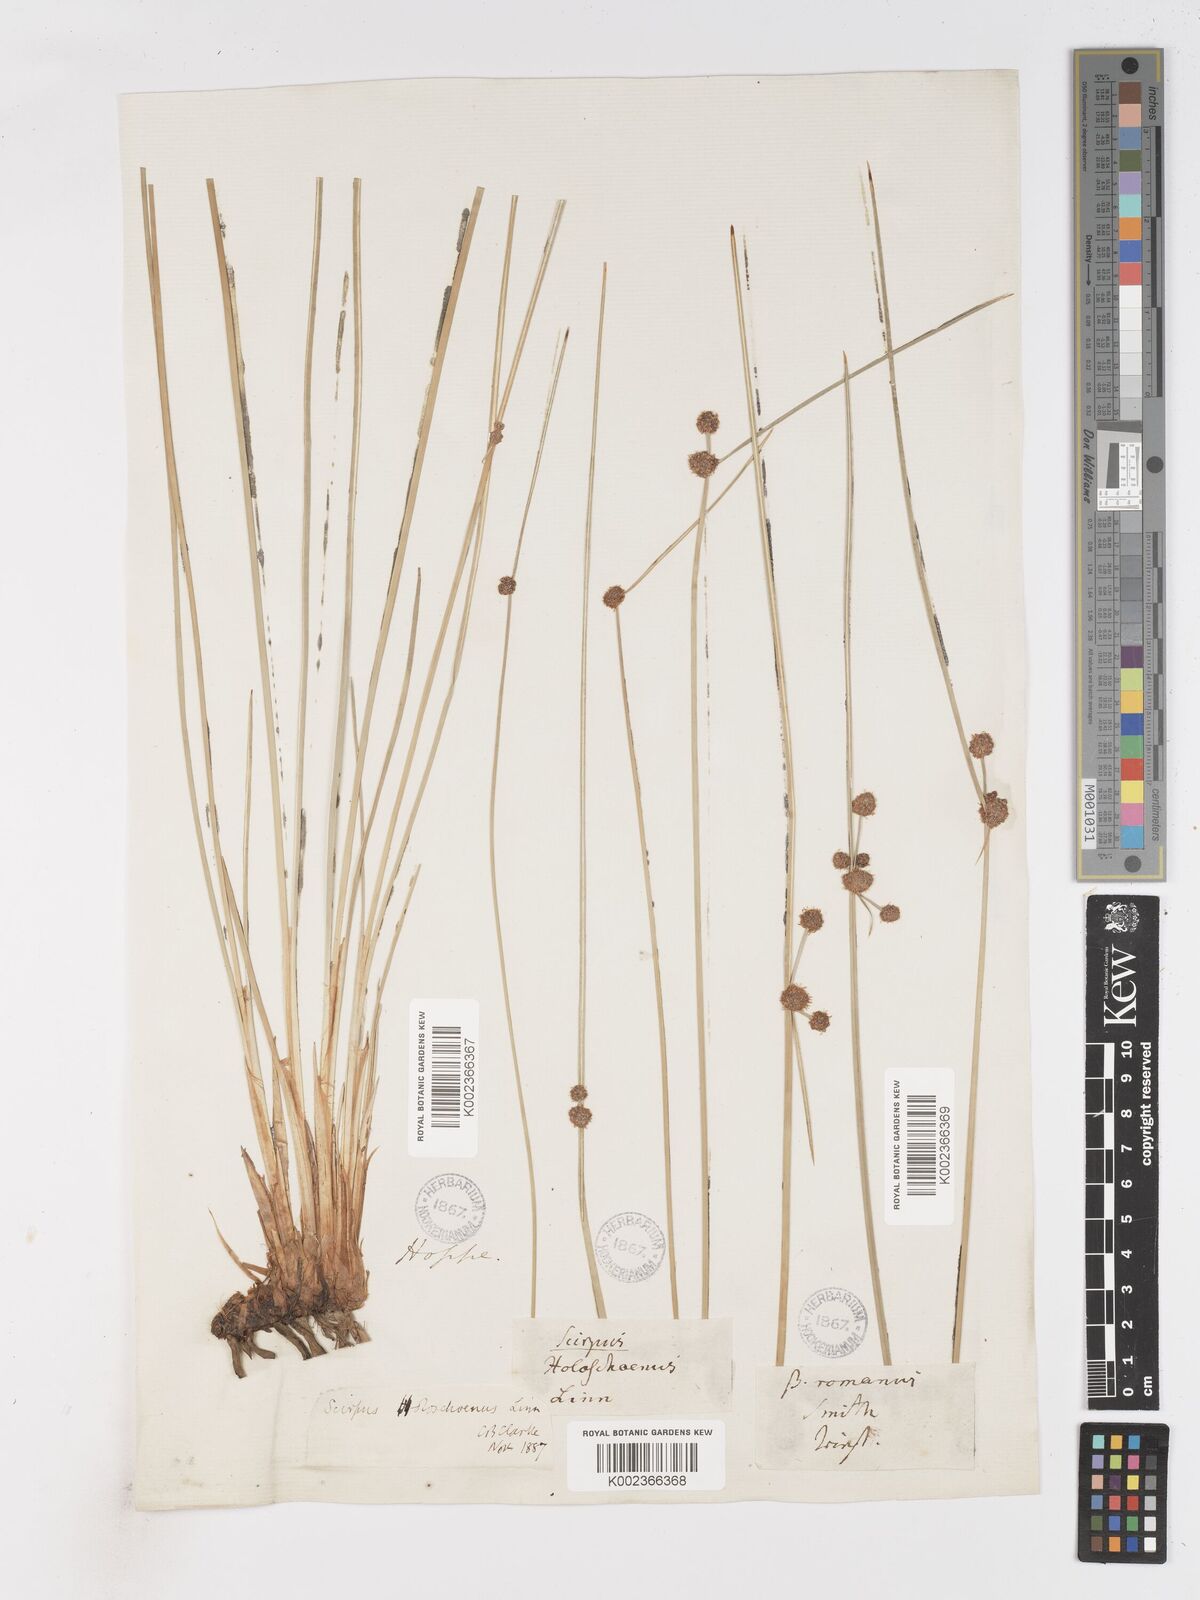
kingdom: Plantae
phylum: Tracheophyta
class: Liliopsida
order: Poales
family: Cyperaceae
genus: Scirpoides
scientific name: Scirpoides holoschoenus
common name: Round-headed club-rush
